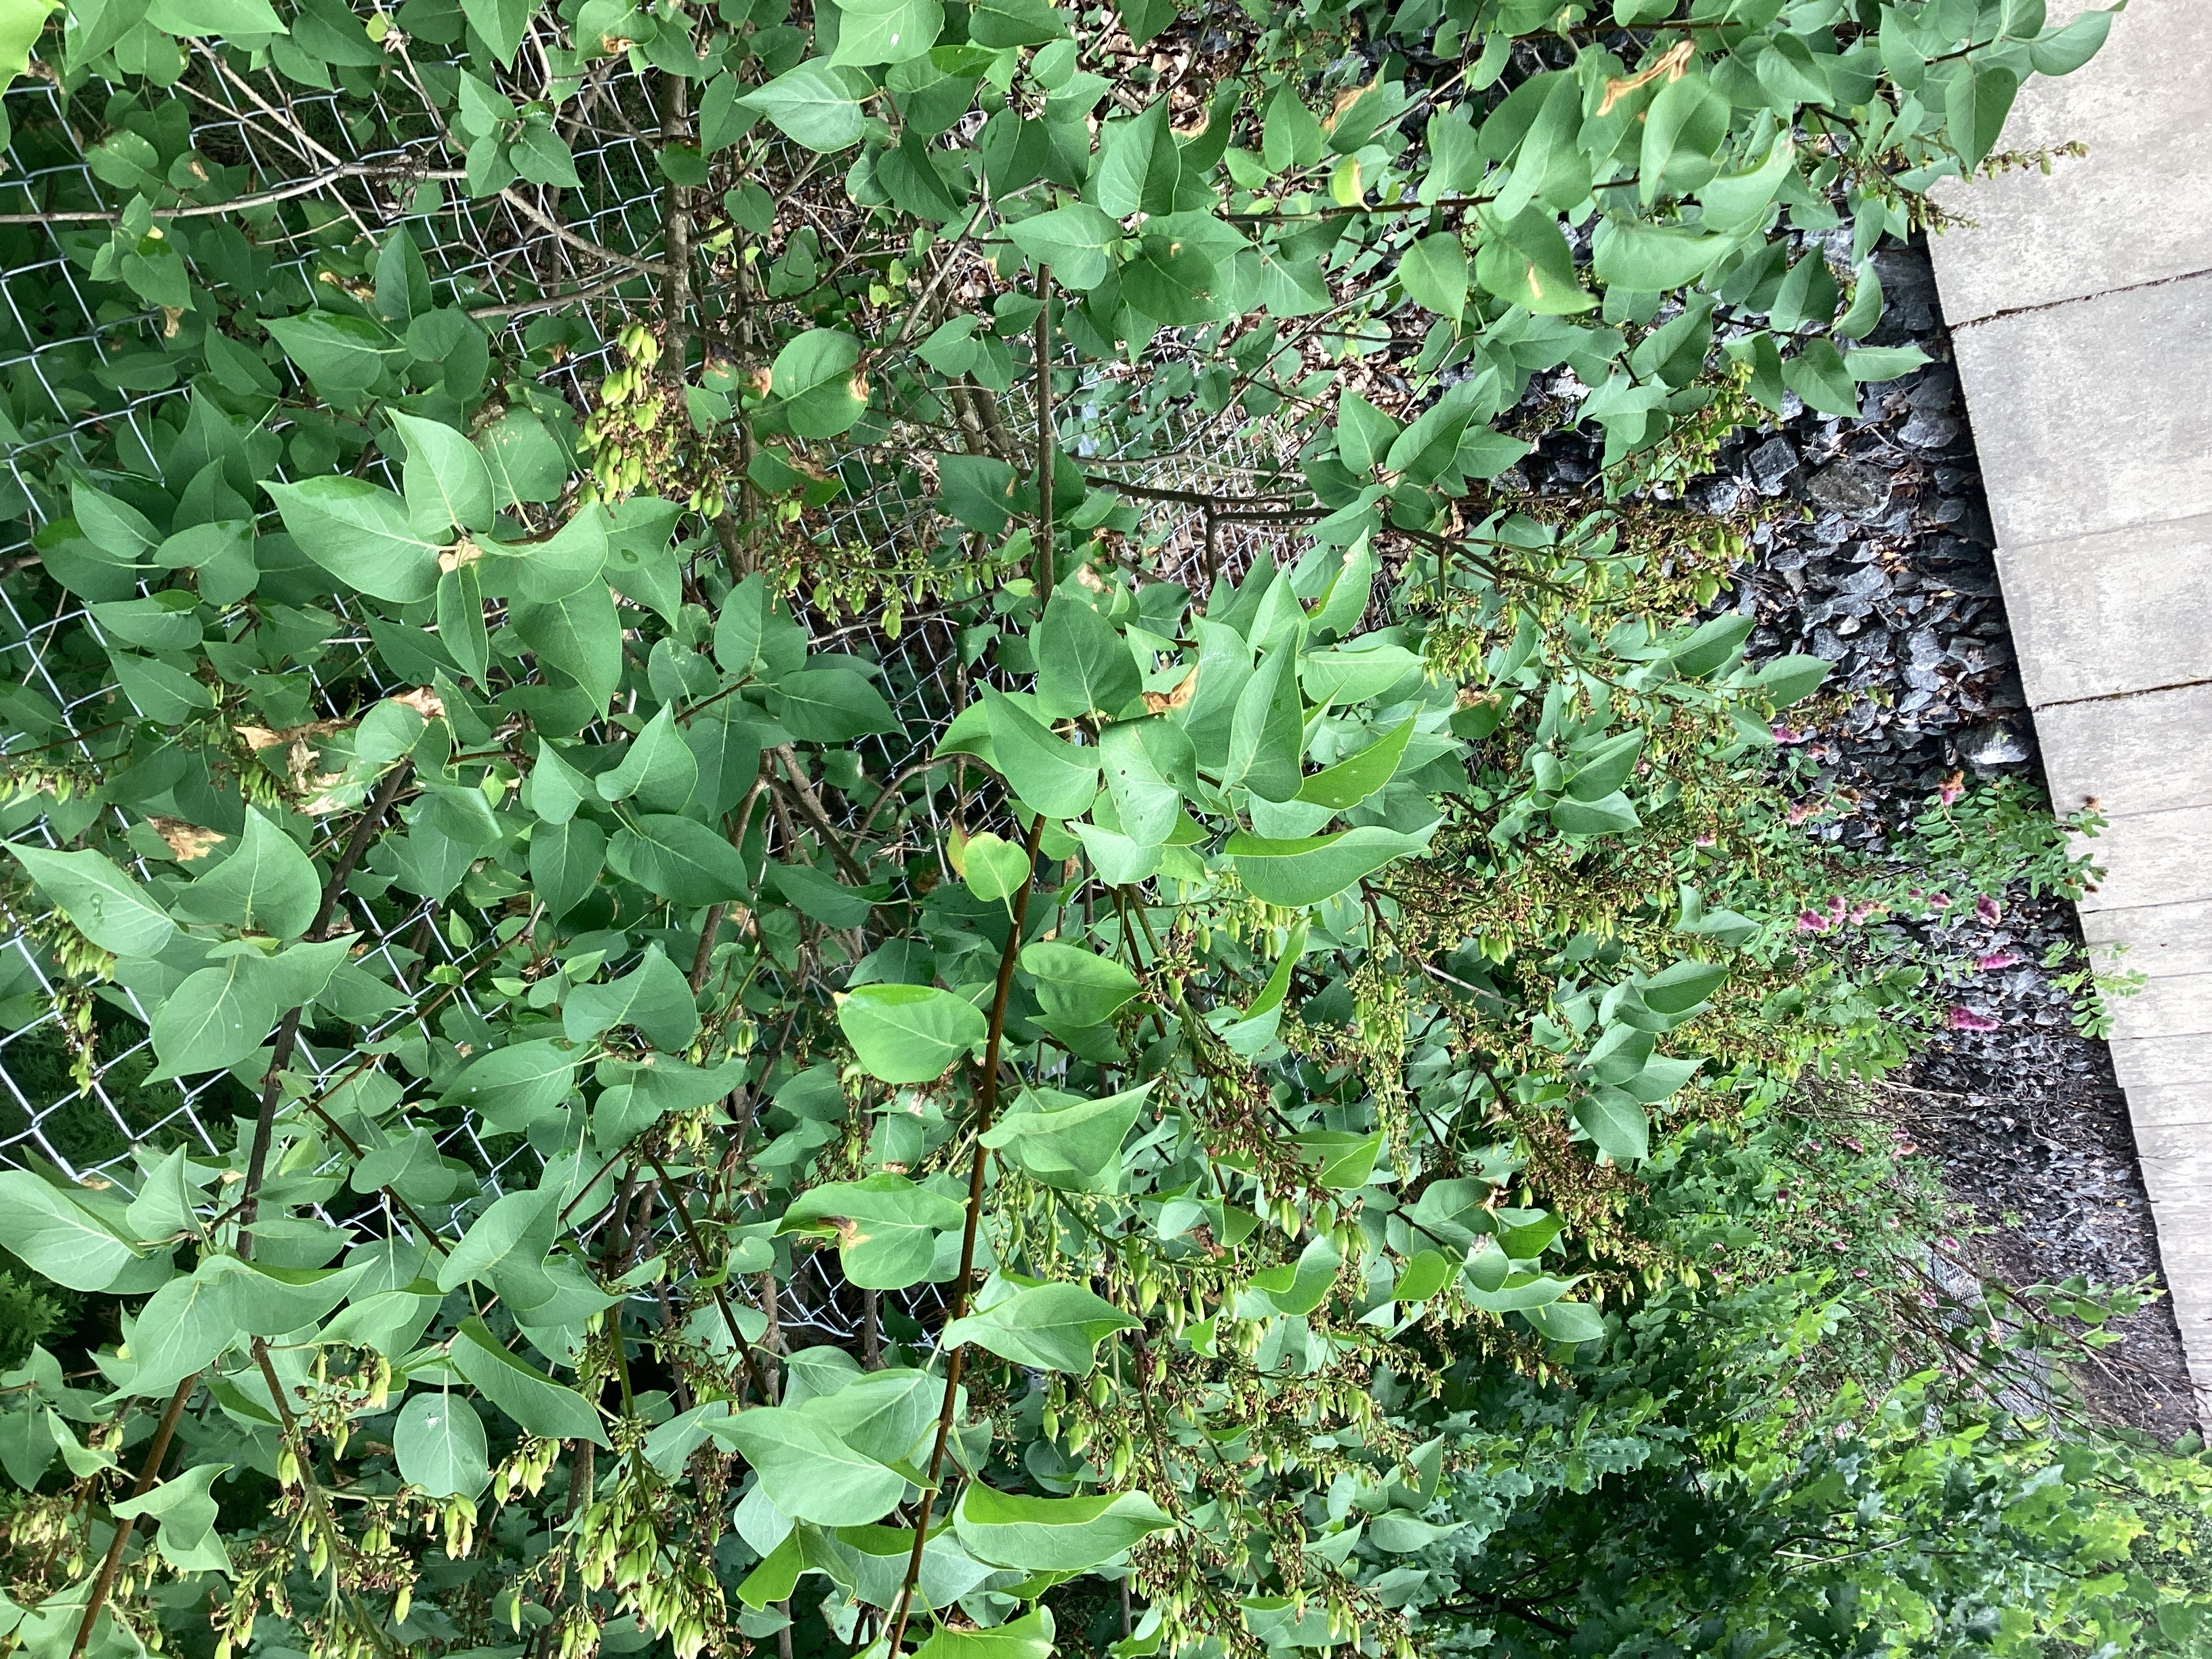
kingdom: Plantae
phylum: Tracheophyta
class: Magnoliopsida
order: Lamiales
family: Oleaceae
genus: Syringa
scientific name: Syringa vulgaris
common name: syrin
